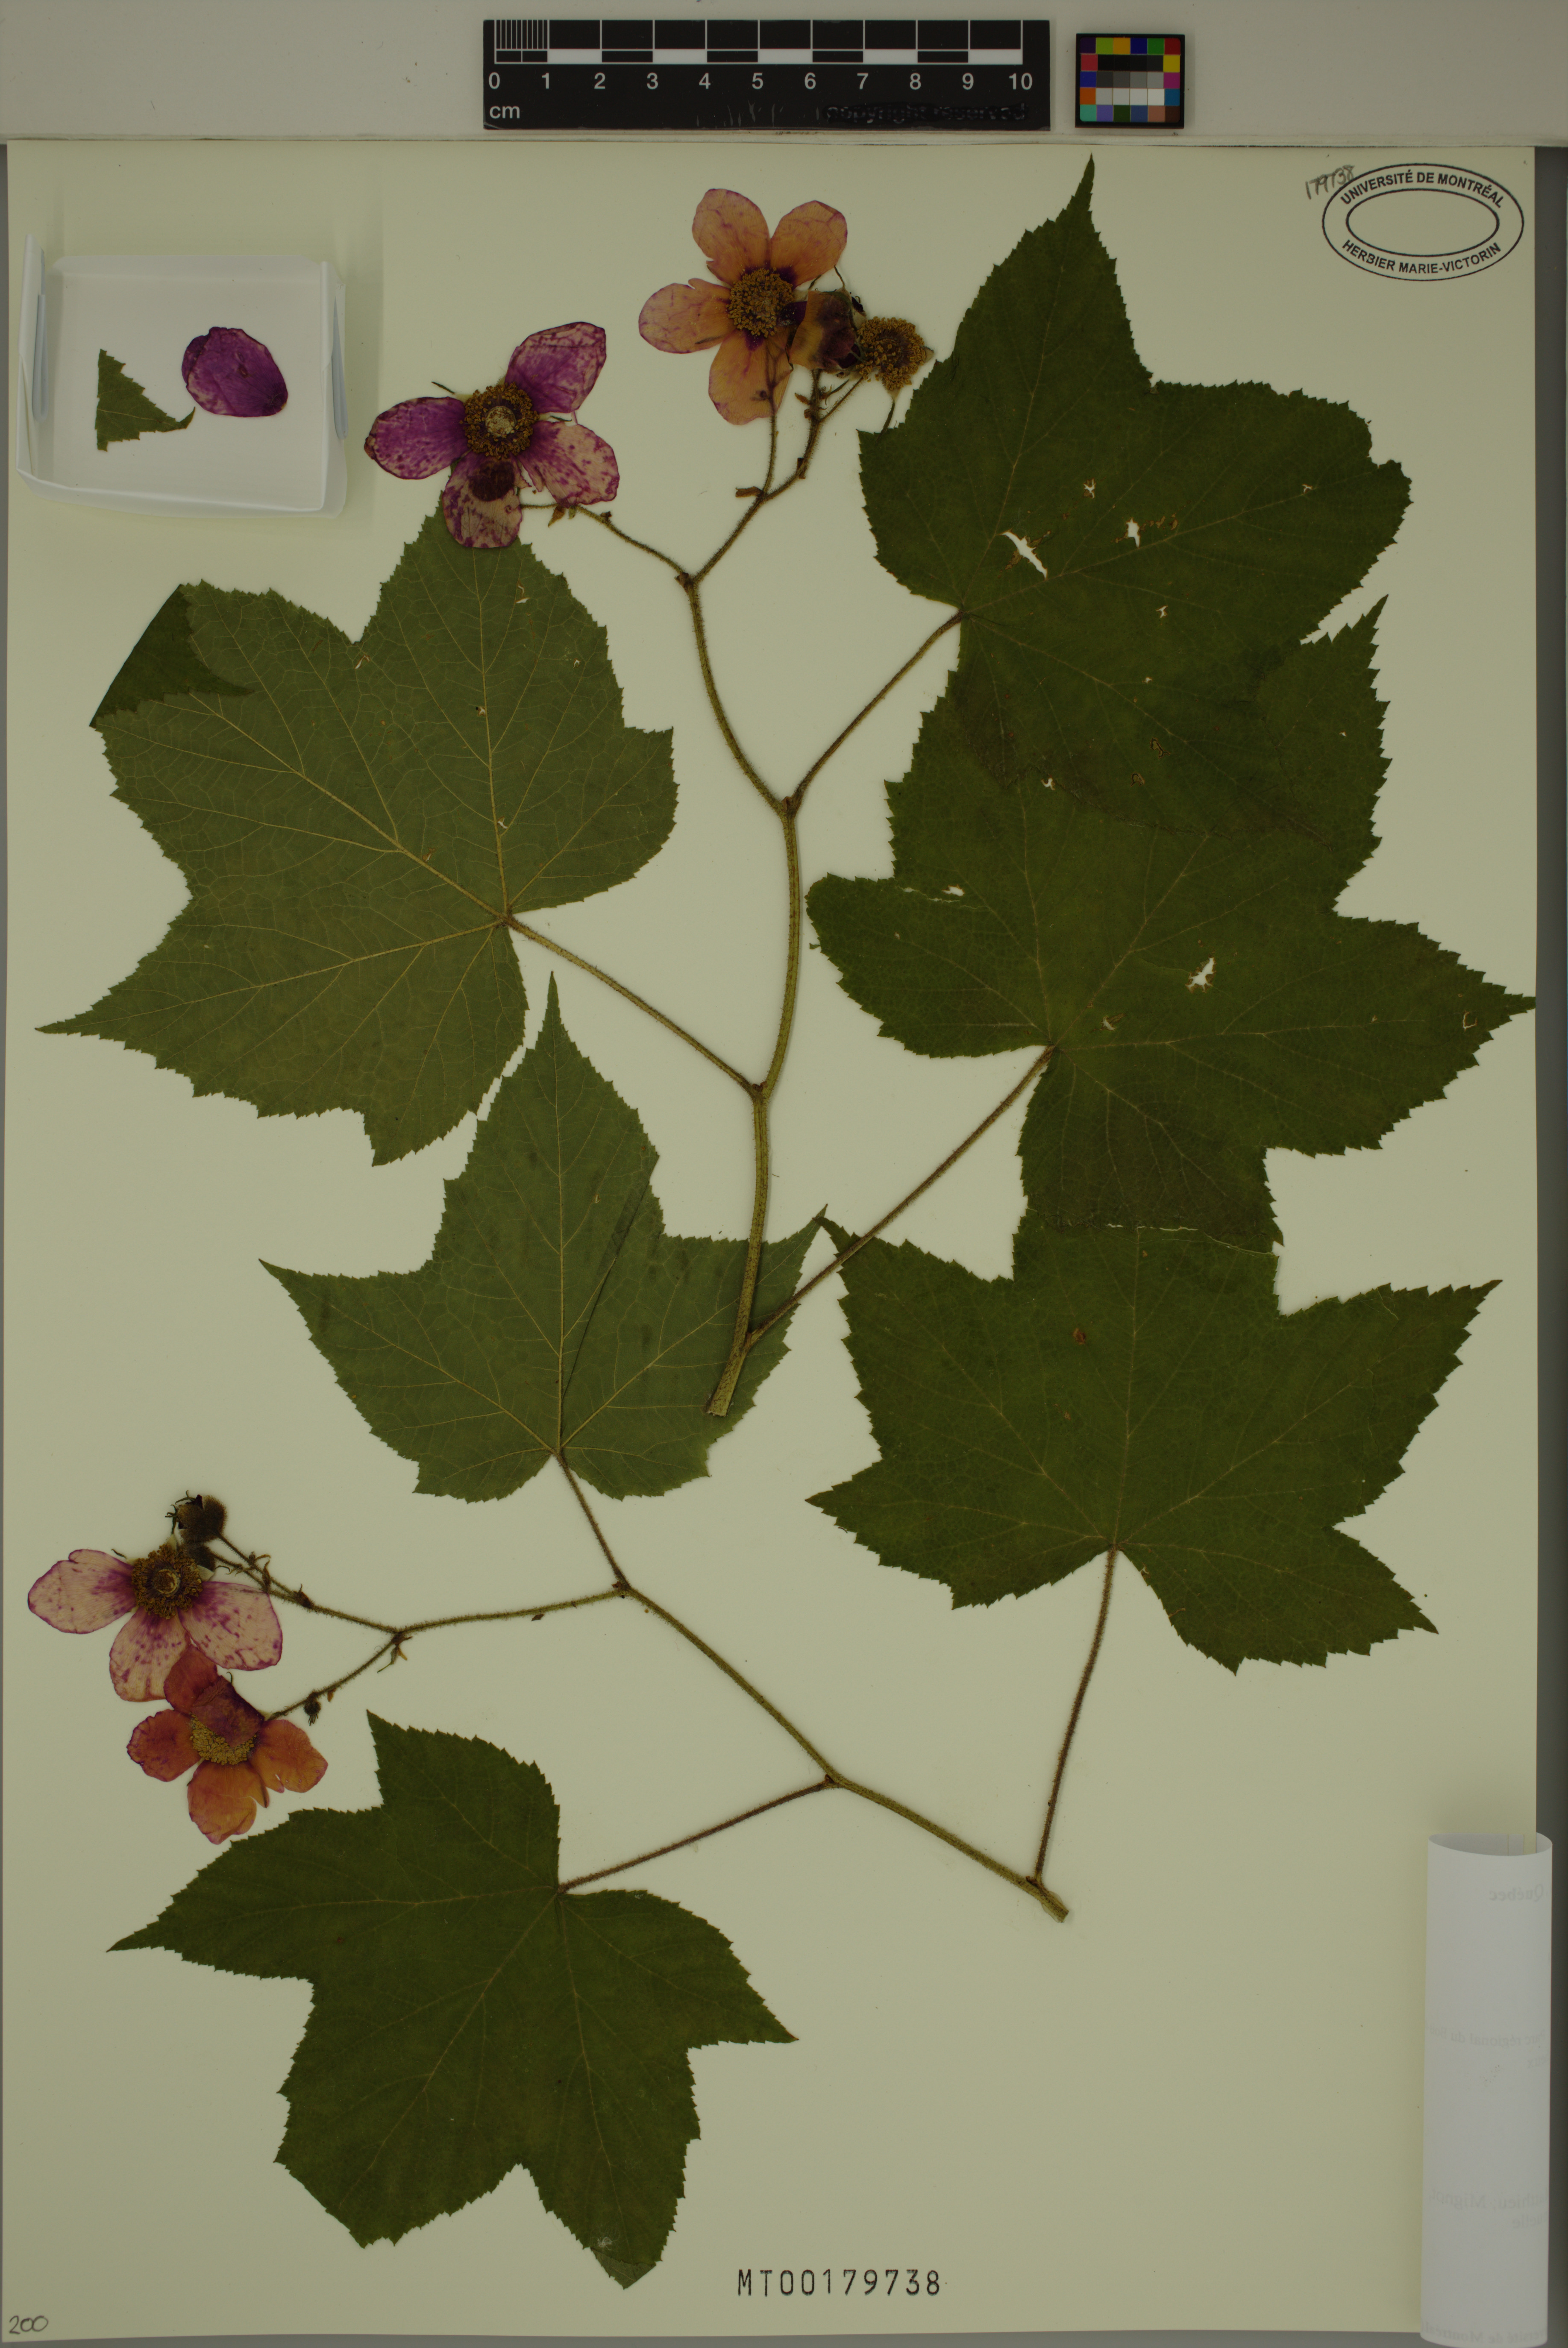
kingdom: Plantae
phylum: Tracheophyta
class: Magnoliopsida
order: Rosales
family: Rosaceae
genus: Rubus
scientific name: Rubus odoratus
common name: Purple-flowered raspberry
